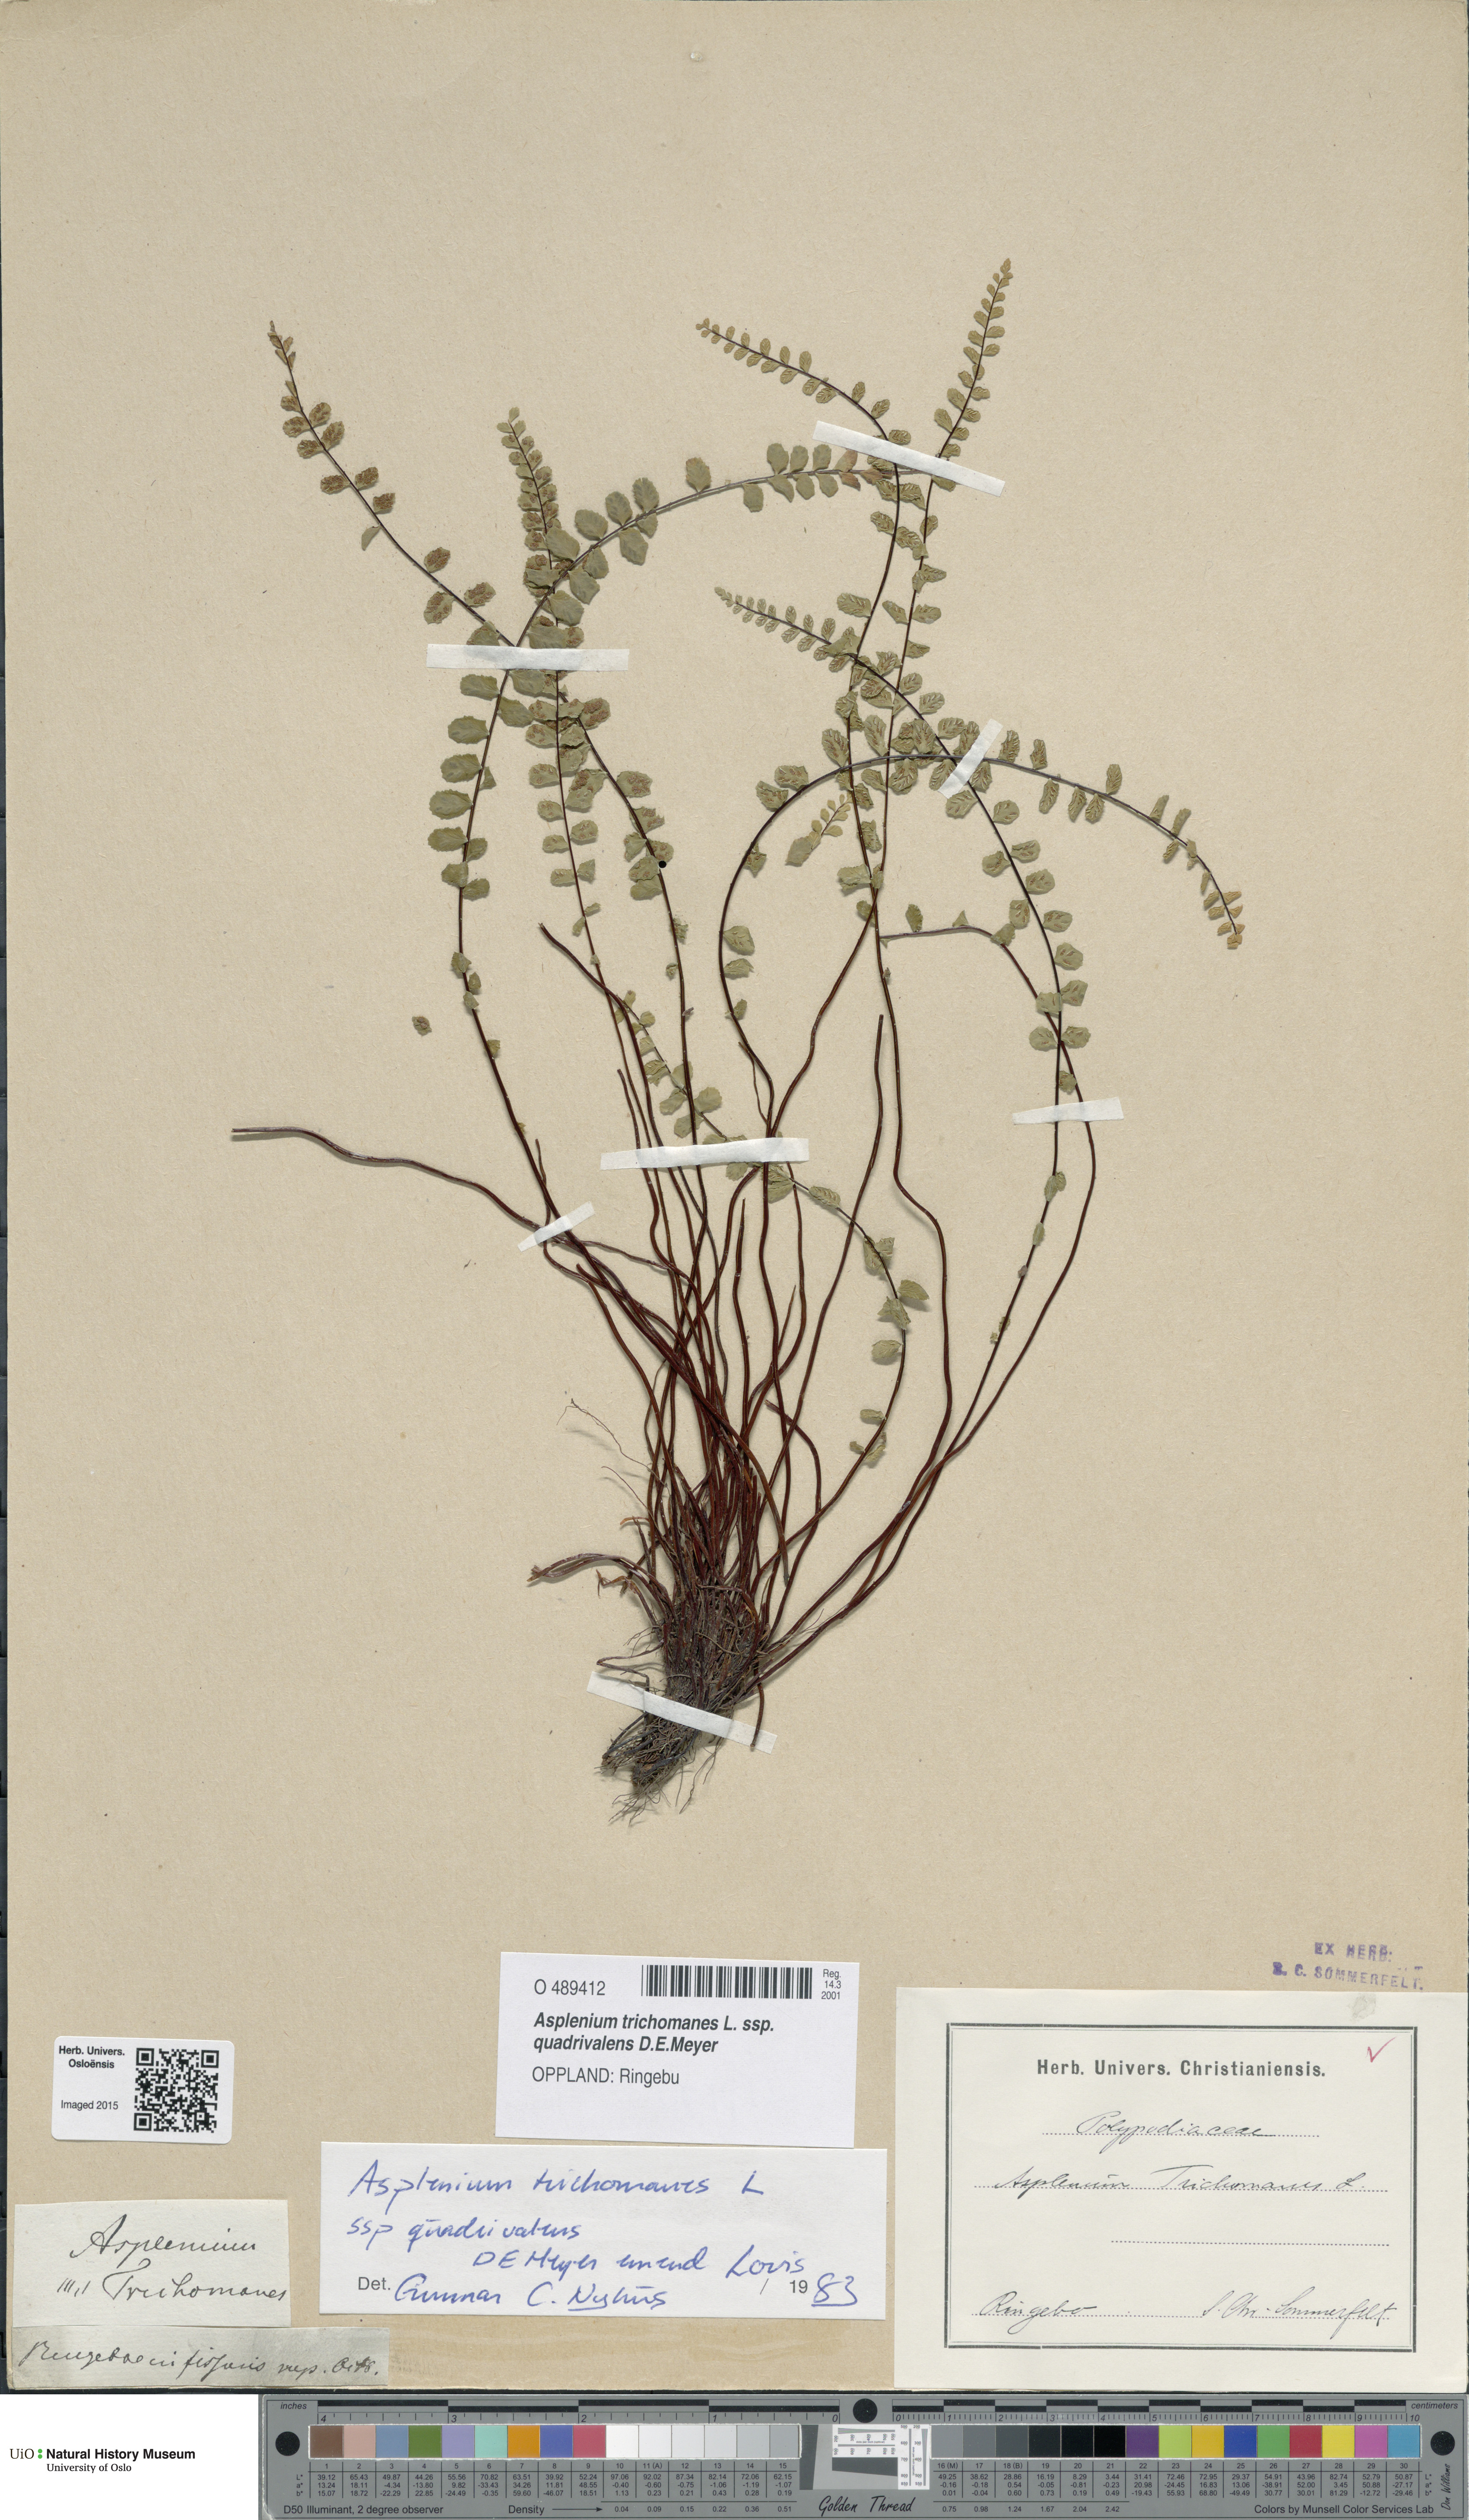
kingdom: Plantae
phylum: Tracheophyta
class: Polypodiopsida
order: Polypodiales
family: Aspleniaceae
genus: Asplenium
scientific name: Asplenium quadrivalens
